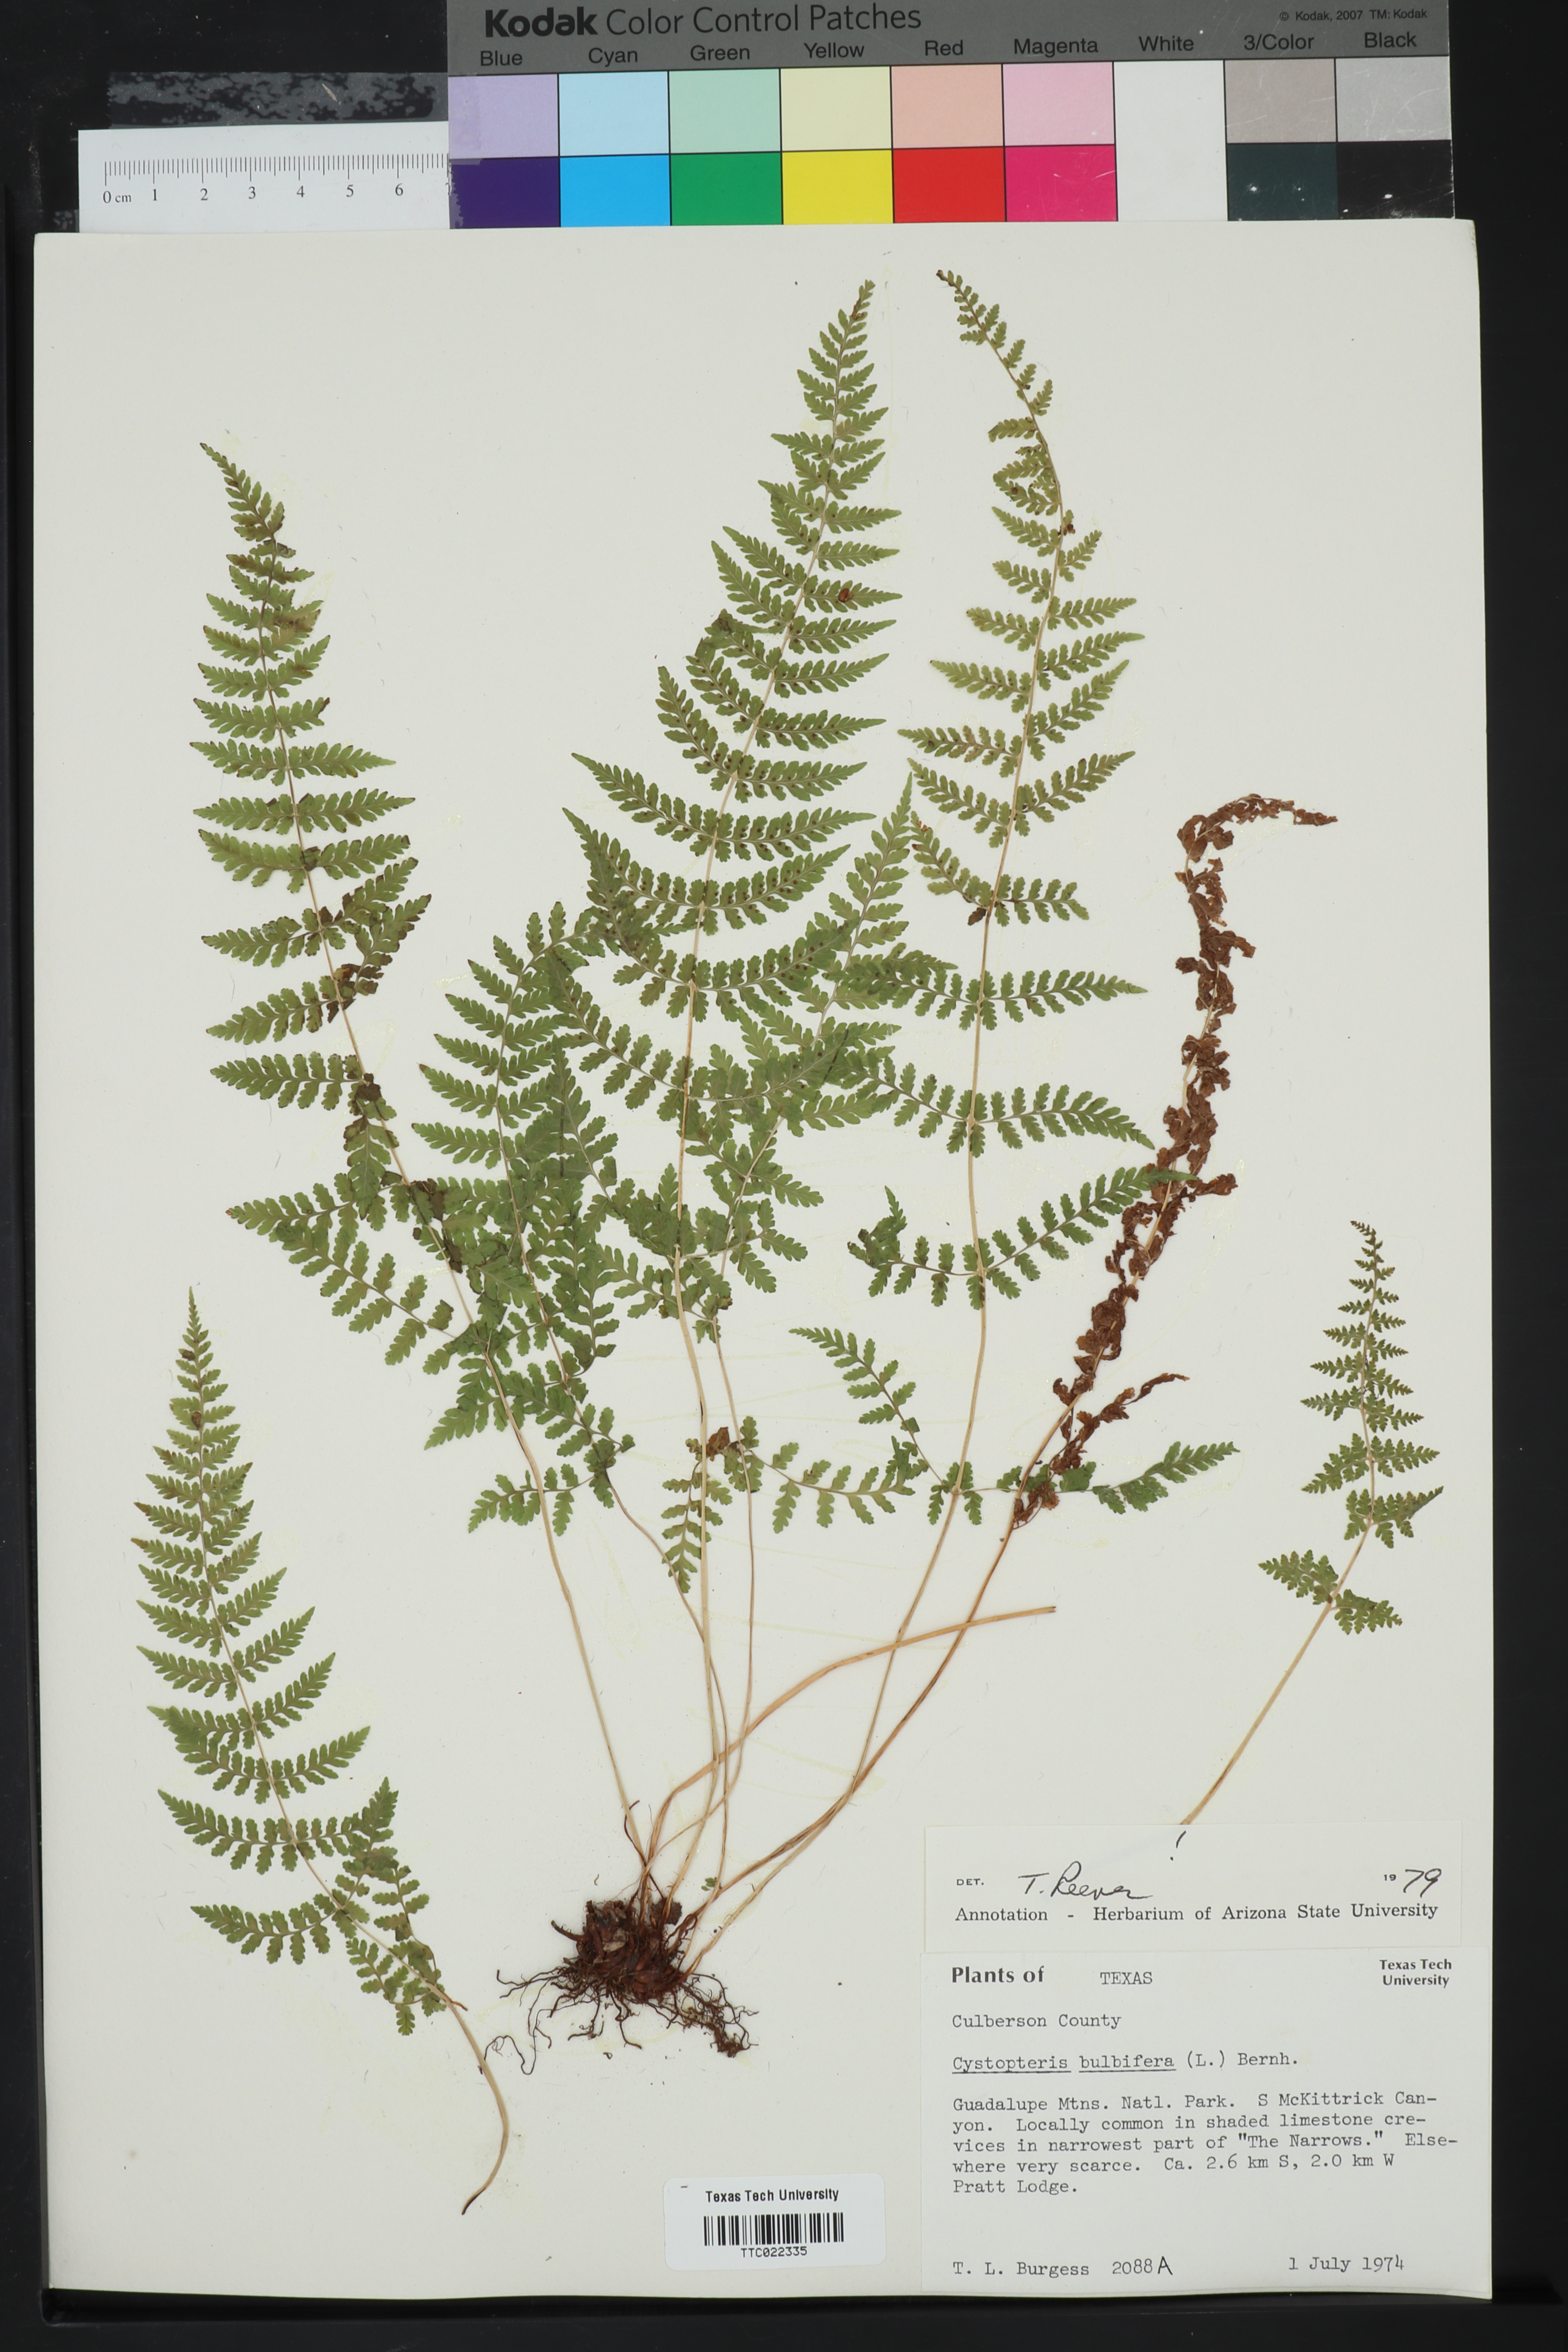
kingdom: Plantae
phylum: Tracheophyta
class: Polypodiopsida
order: Polypodiales
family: Cystopteridaceae
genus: Cystopteris
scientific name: Cystopteris bulbifera
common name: Bulblet bladder fern
